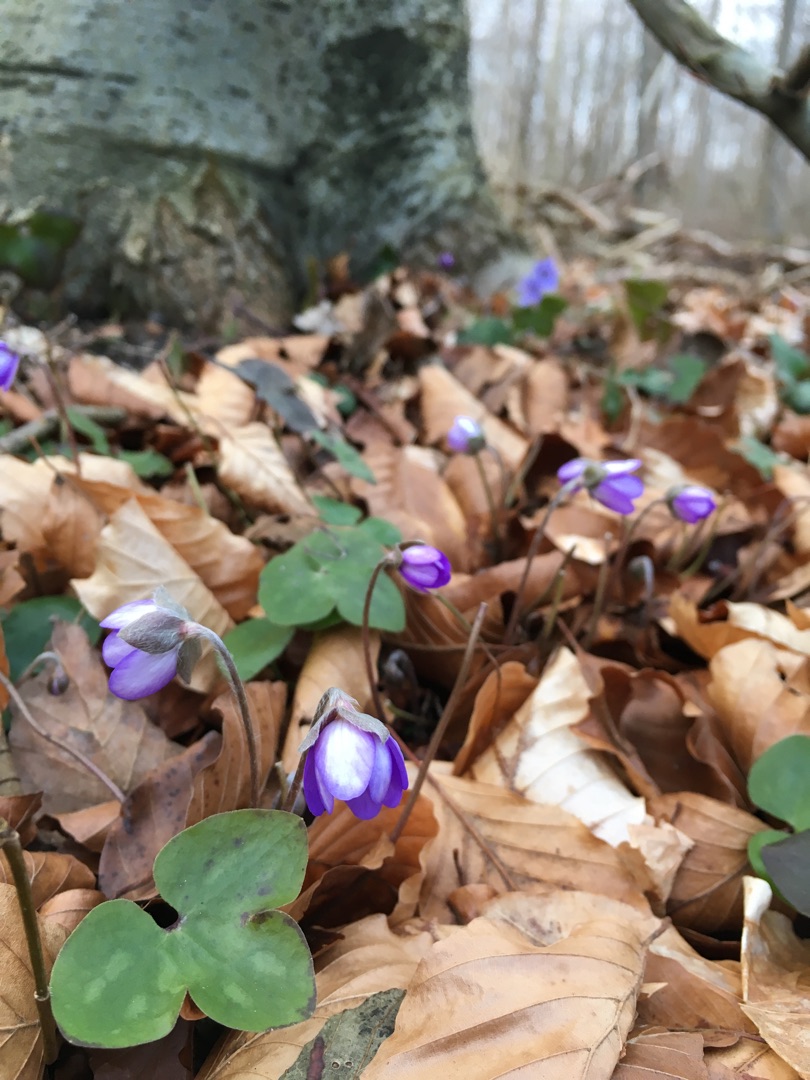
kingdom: Plantae
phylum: Tracheophyta
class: Magnoliopsida
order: Ranunculales
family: Ranunculaceae
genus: Hepatica
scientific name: Hepatica nobilis
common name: Blå anemone
